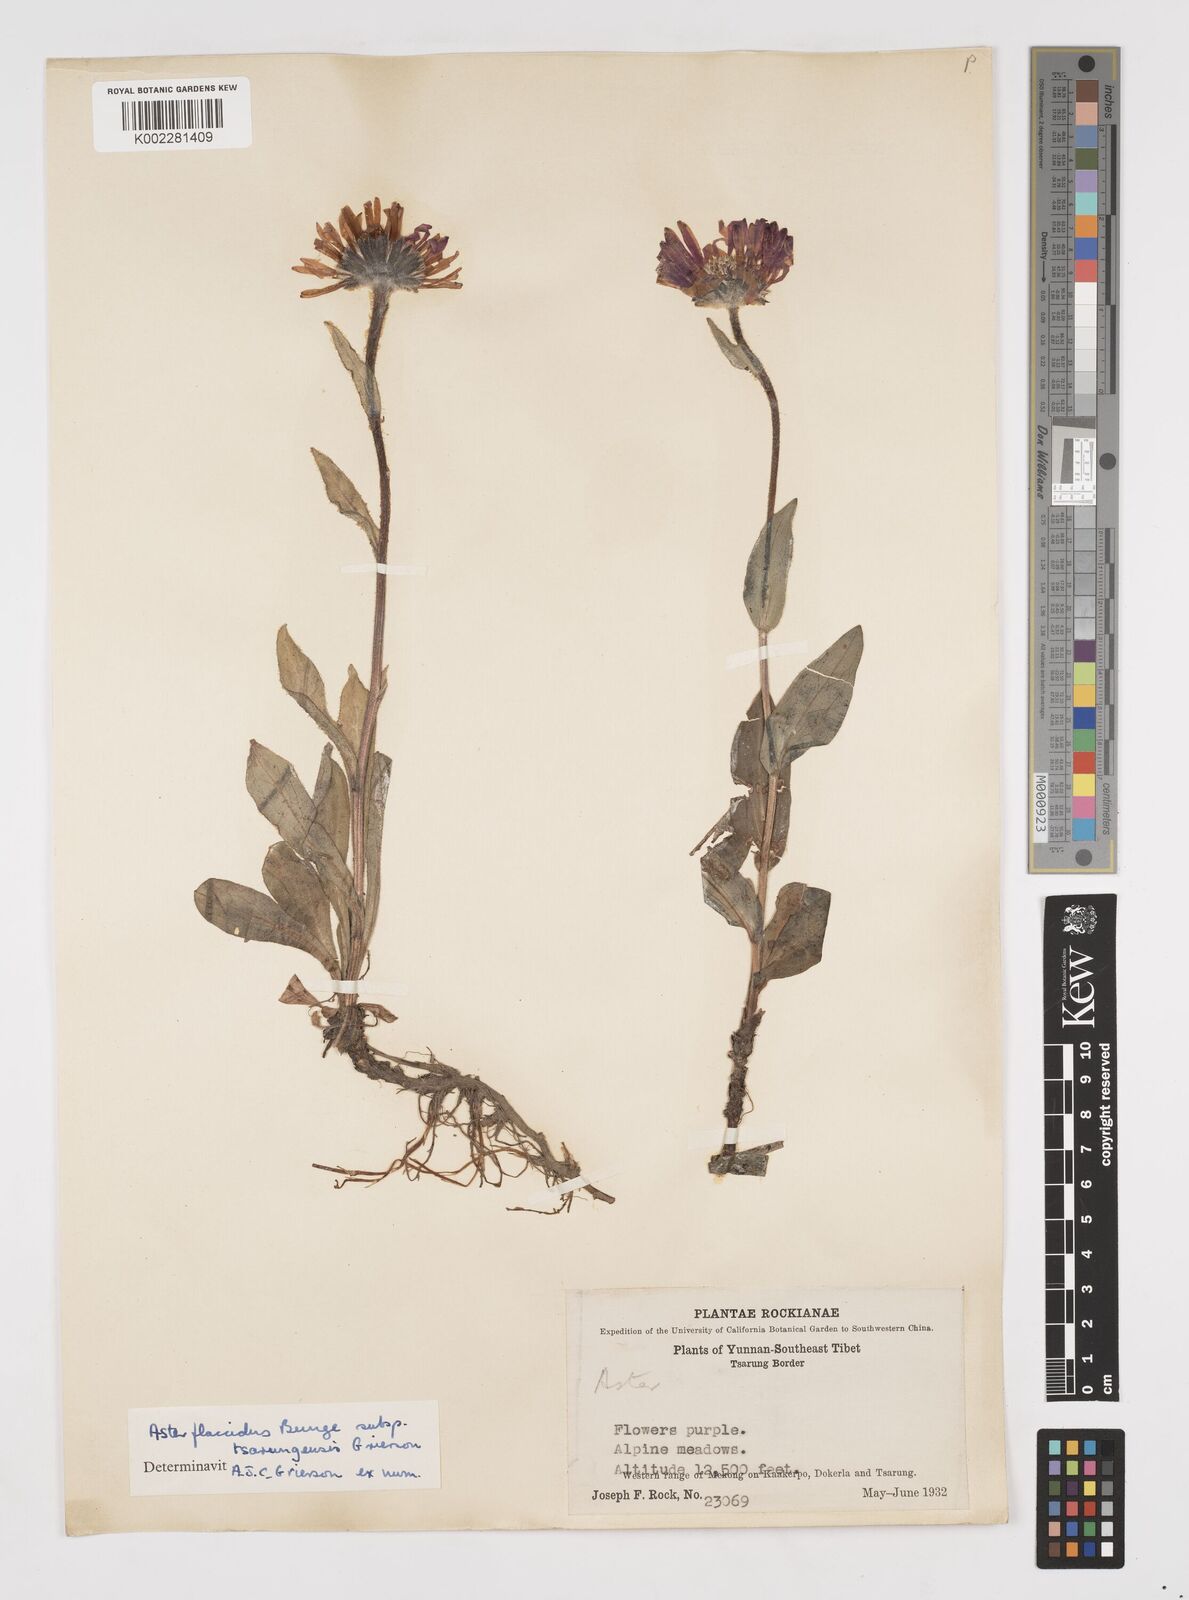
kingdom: Plantae
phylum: Tracheophyta
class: Magnoliopsida
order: Asterales
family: Asteraceae
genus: Tibetiodes
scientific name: Tibetiodes tsarungensis
